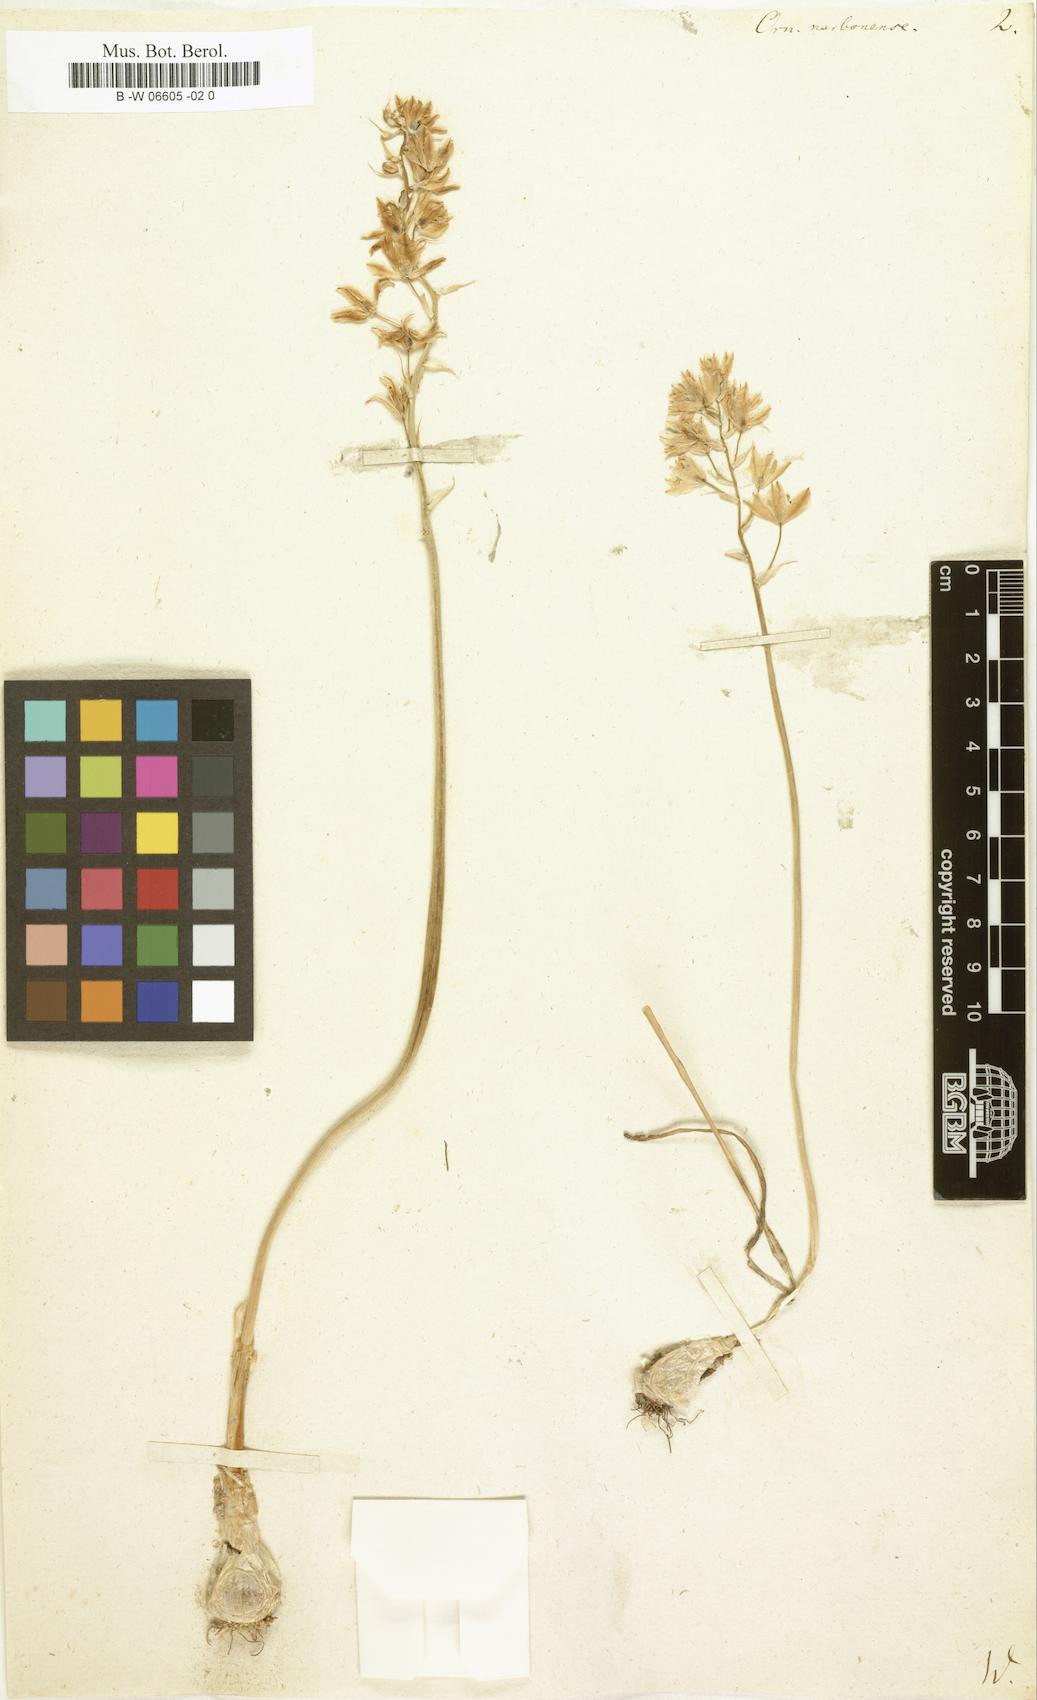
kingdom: Plantae
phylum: Tracheophyta
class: Liliopsida
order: Asparagales
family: Asparagaceae
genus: Ornithogalum
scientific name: Ornithogalum narbonense
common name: Bath-asparagus
